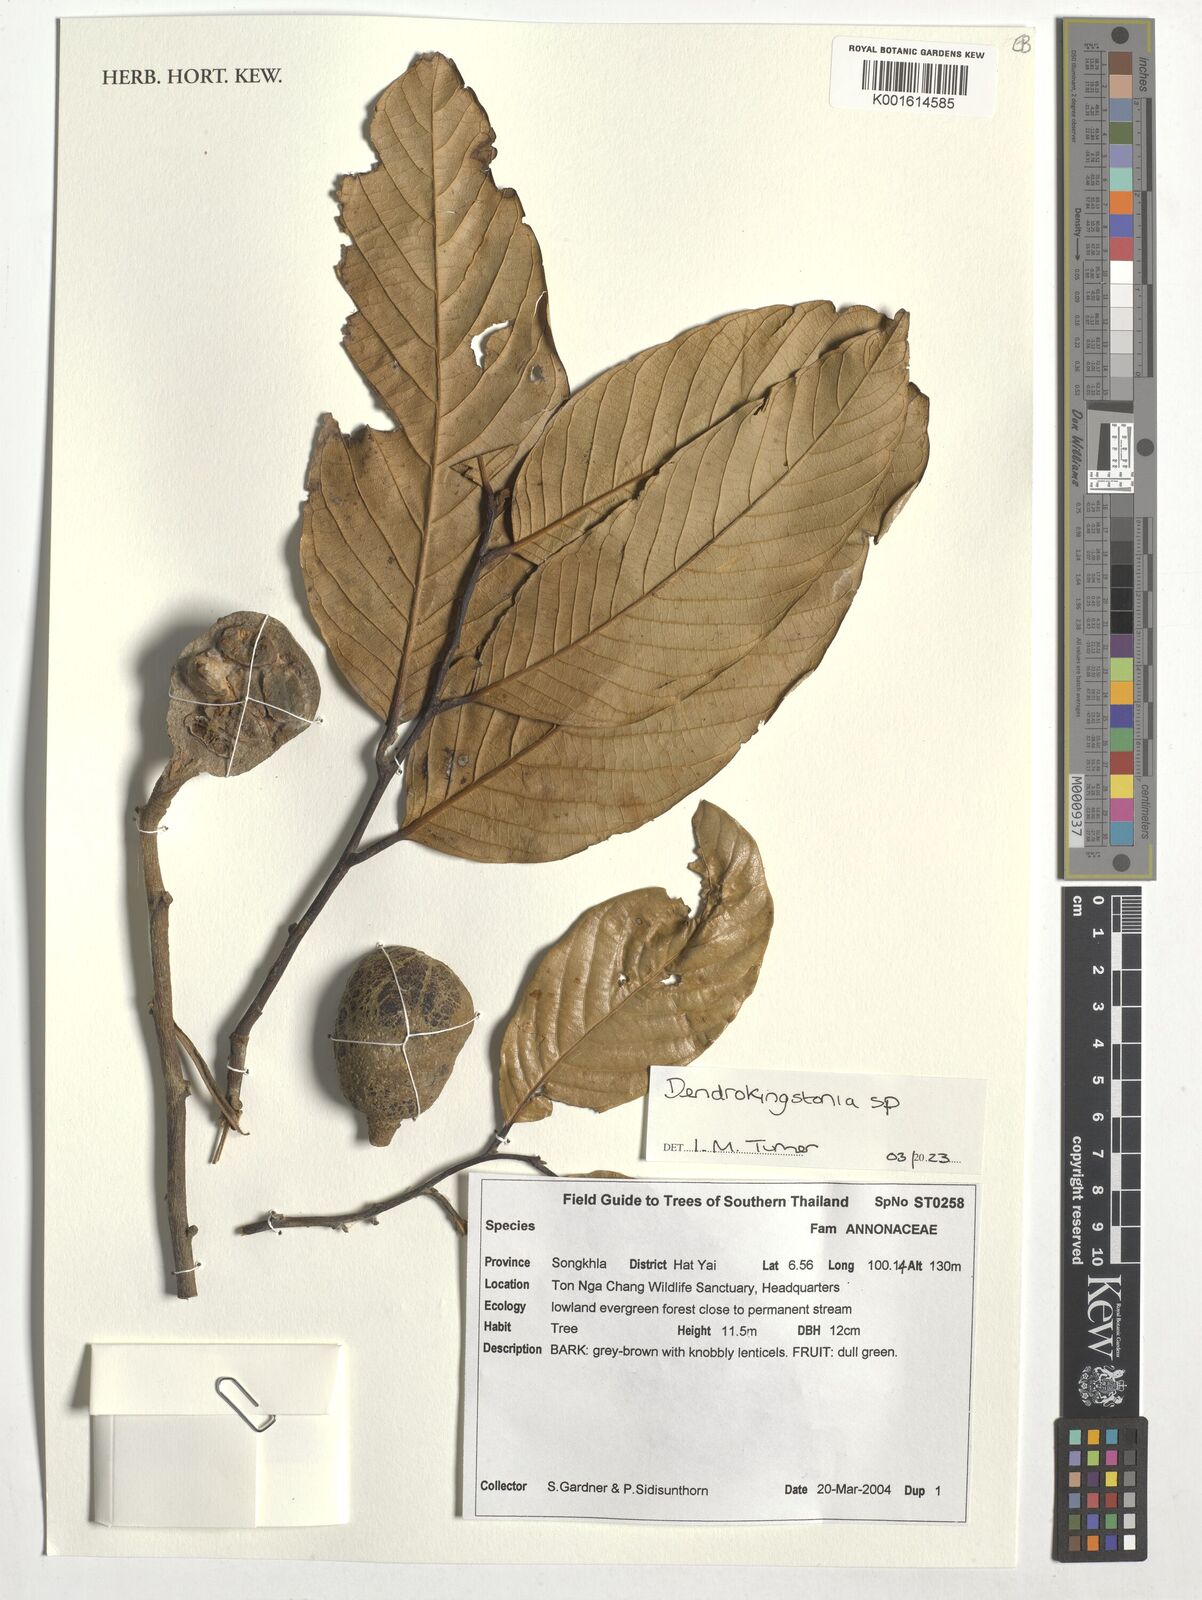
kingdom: Plantae
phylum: Tracheophyta
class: Magnoliopsida
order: Magnoliales
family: Annonaceae
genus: Dendrokingstonia
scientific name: Dendrokingstonia
